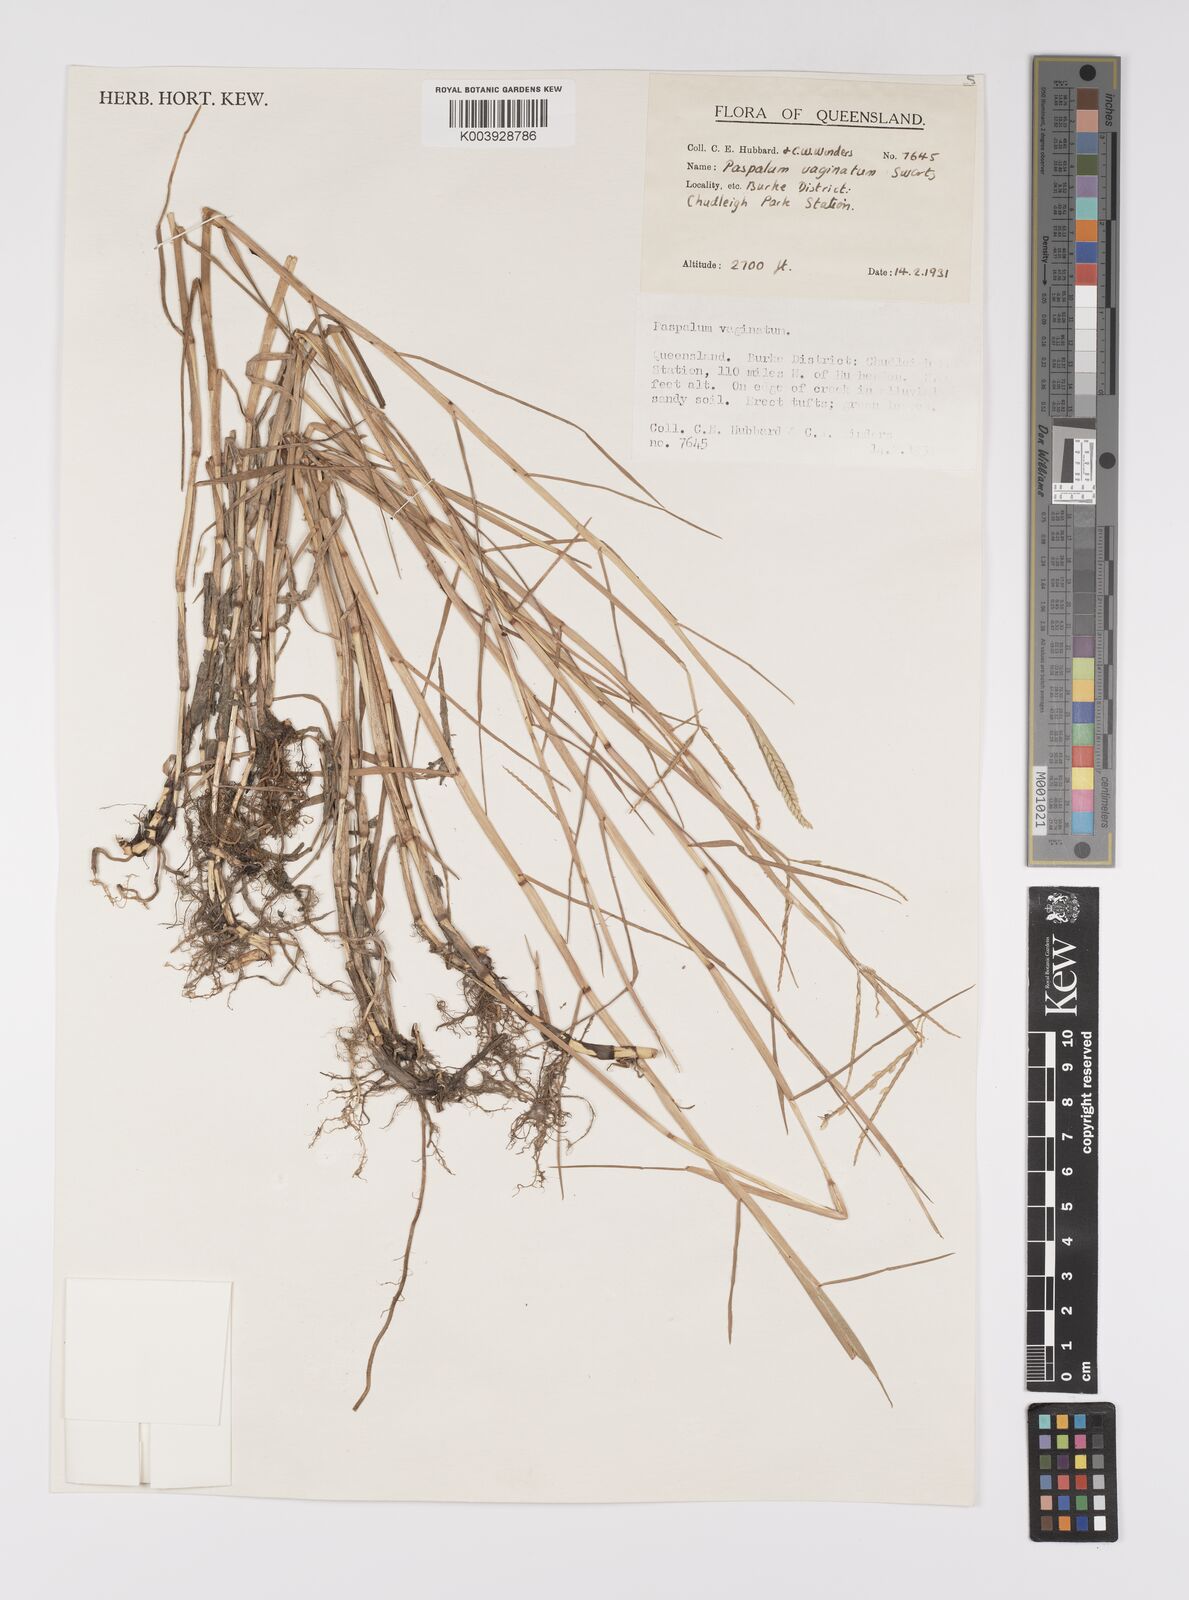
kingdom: Plantae
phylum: Tracheophyta
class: Liliopsida
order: Poales
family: Poaceae
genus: Paspalum
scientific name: Paspalum vaginatum
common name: Seashore paspalum
